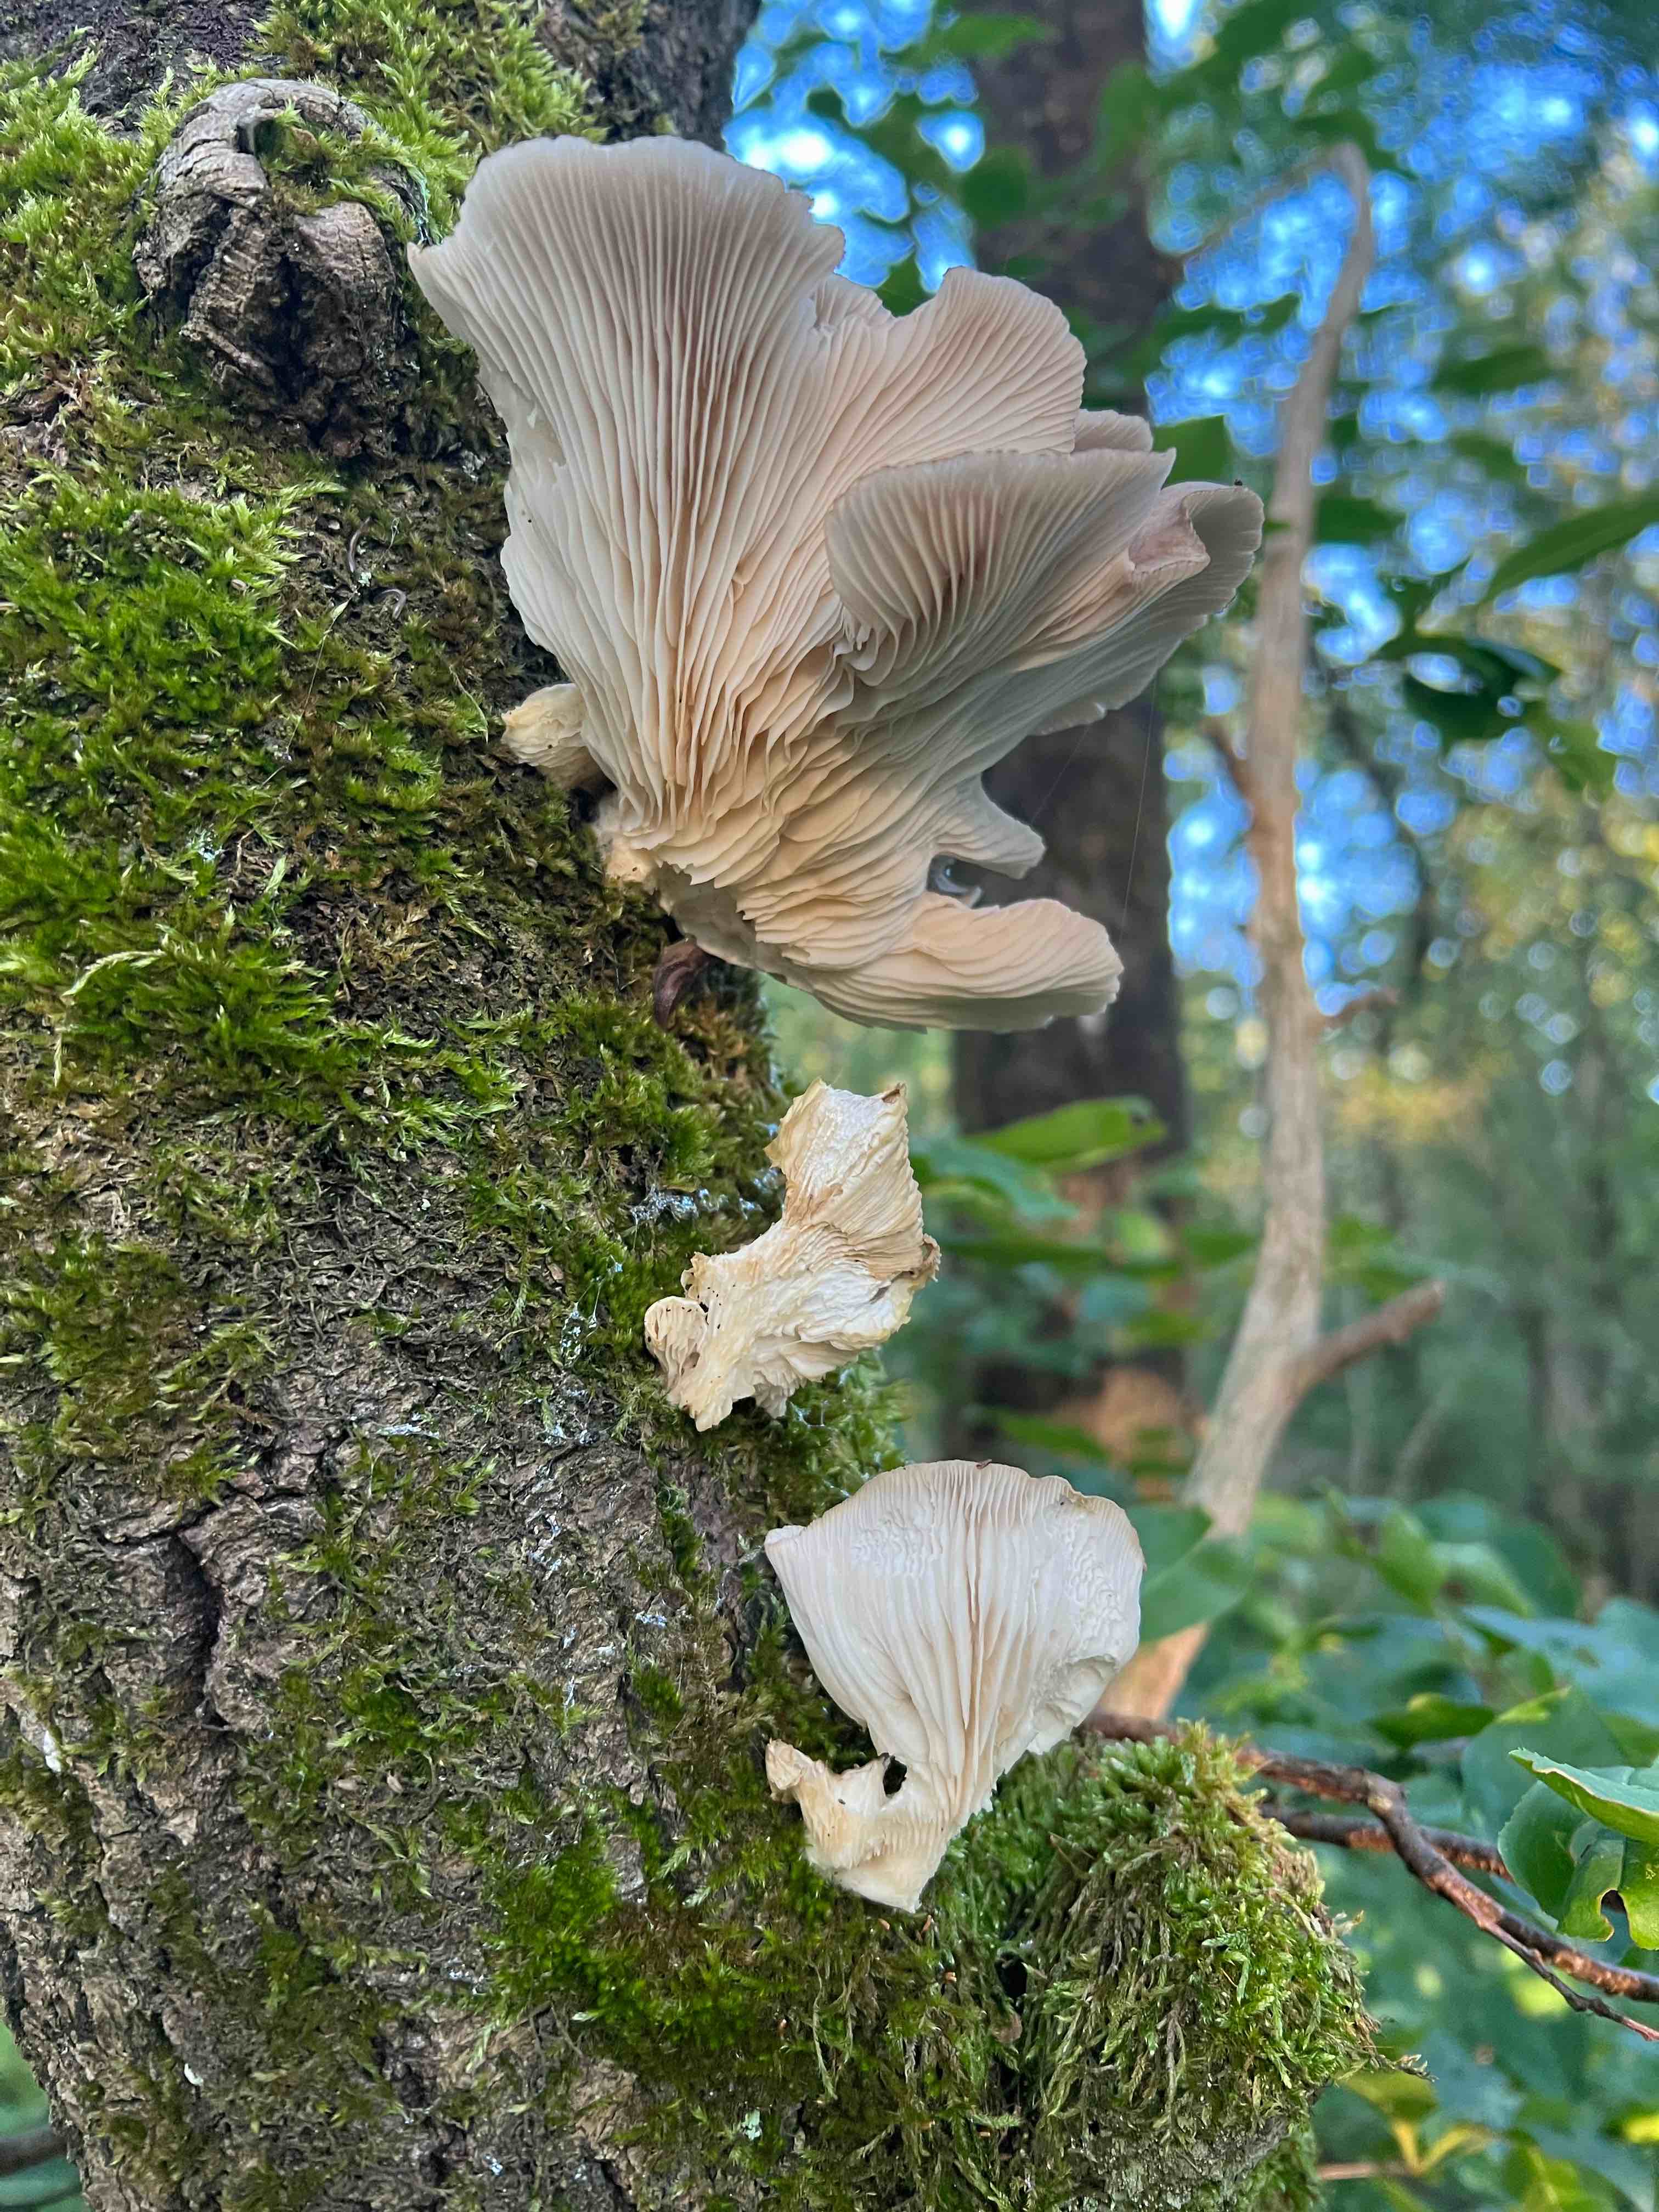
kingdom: Fungi
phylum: Basidiomycota
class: Agaricomycetes
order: Agaricales
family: Pleurotaceae
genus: Pleurotus
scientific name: Pleurotus pulmonarius
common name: sommer-østershat
